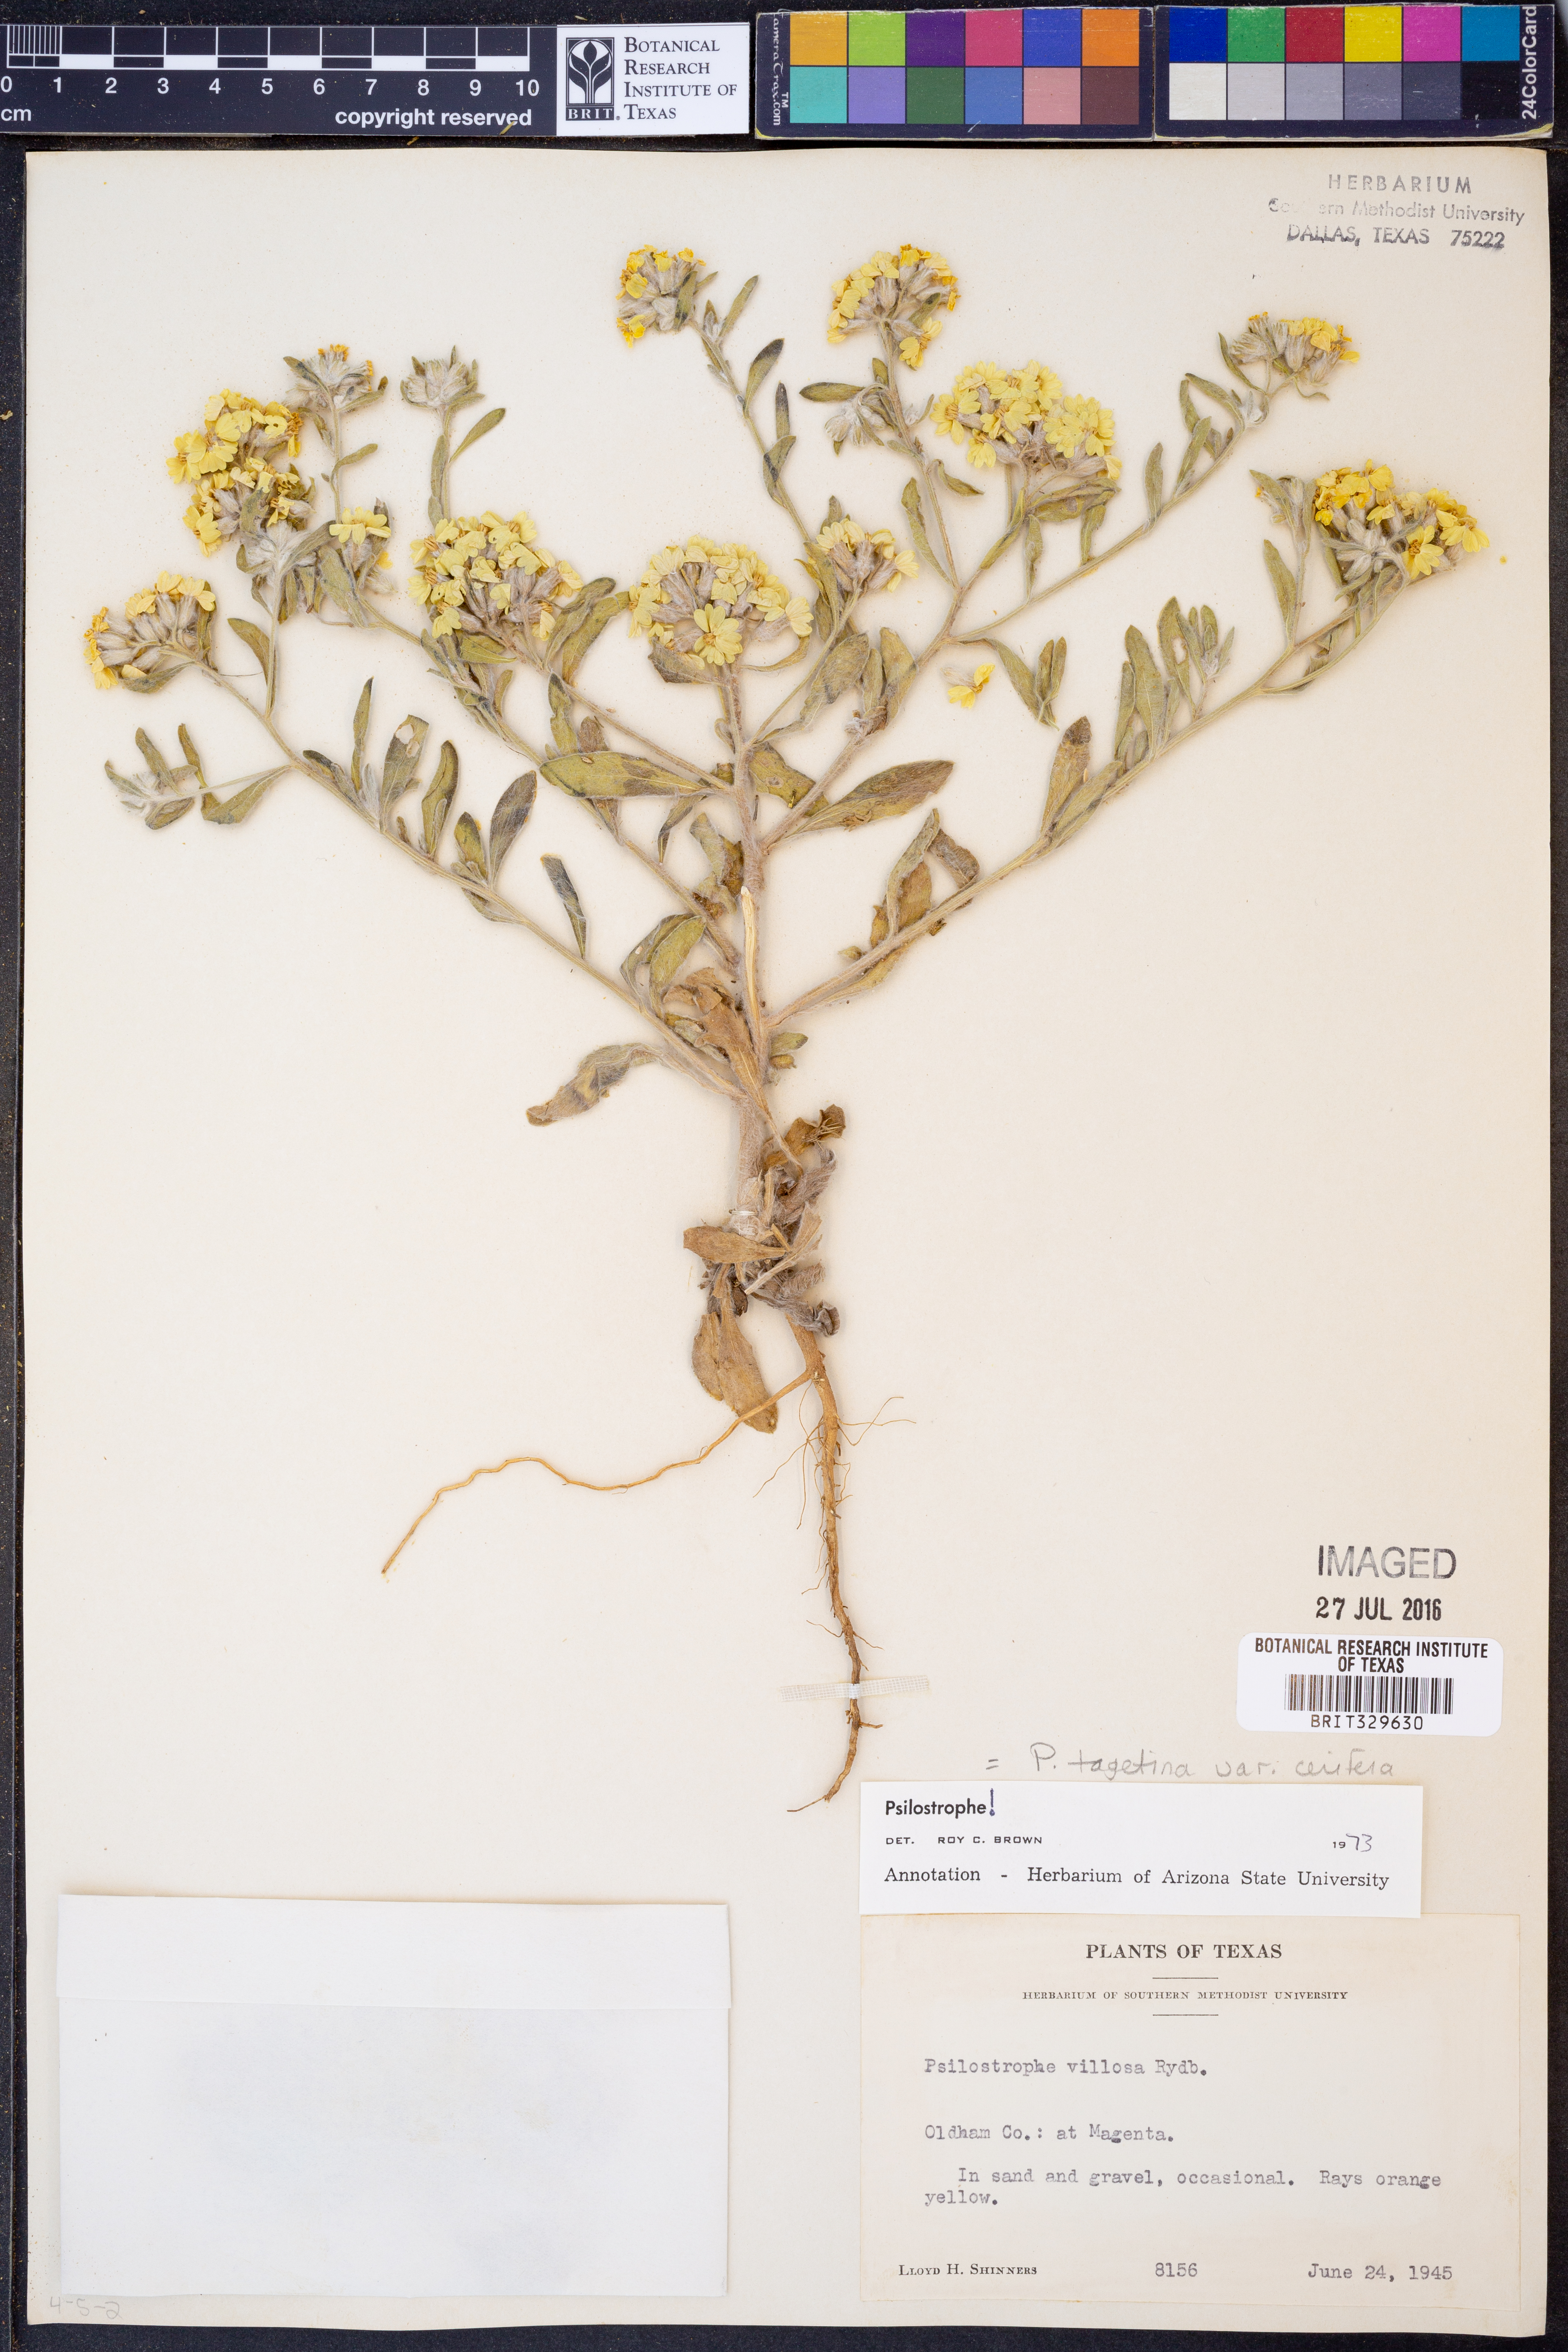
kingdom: Plantae
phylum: Tracheophyta
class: Magnoliopsida
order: Asterales
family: Asteraceae
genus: Psilostrophe
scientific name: Psilostrophe villosa
